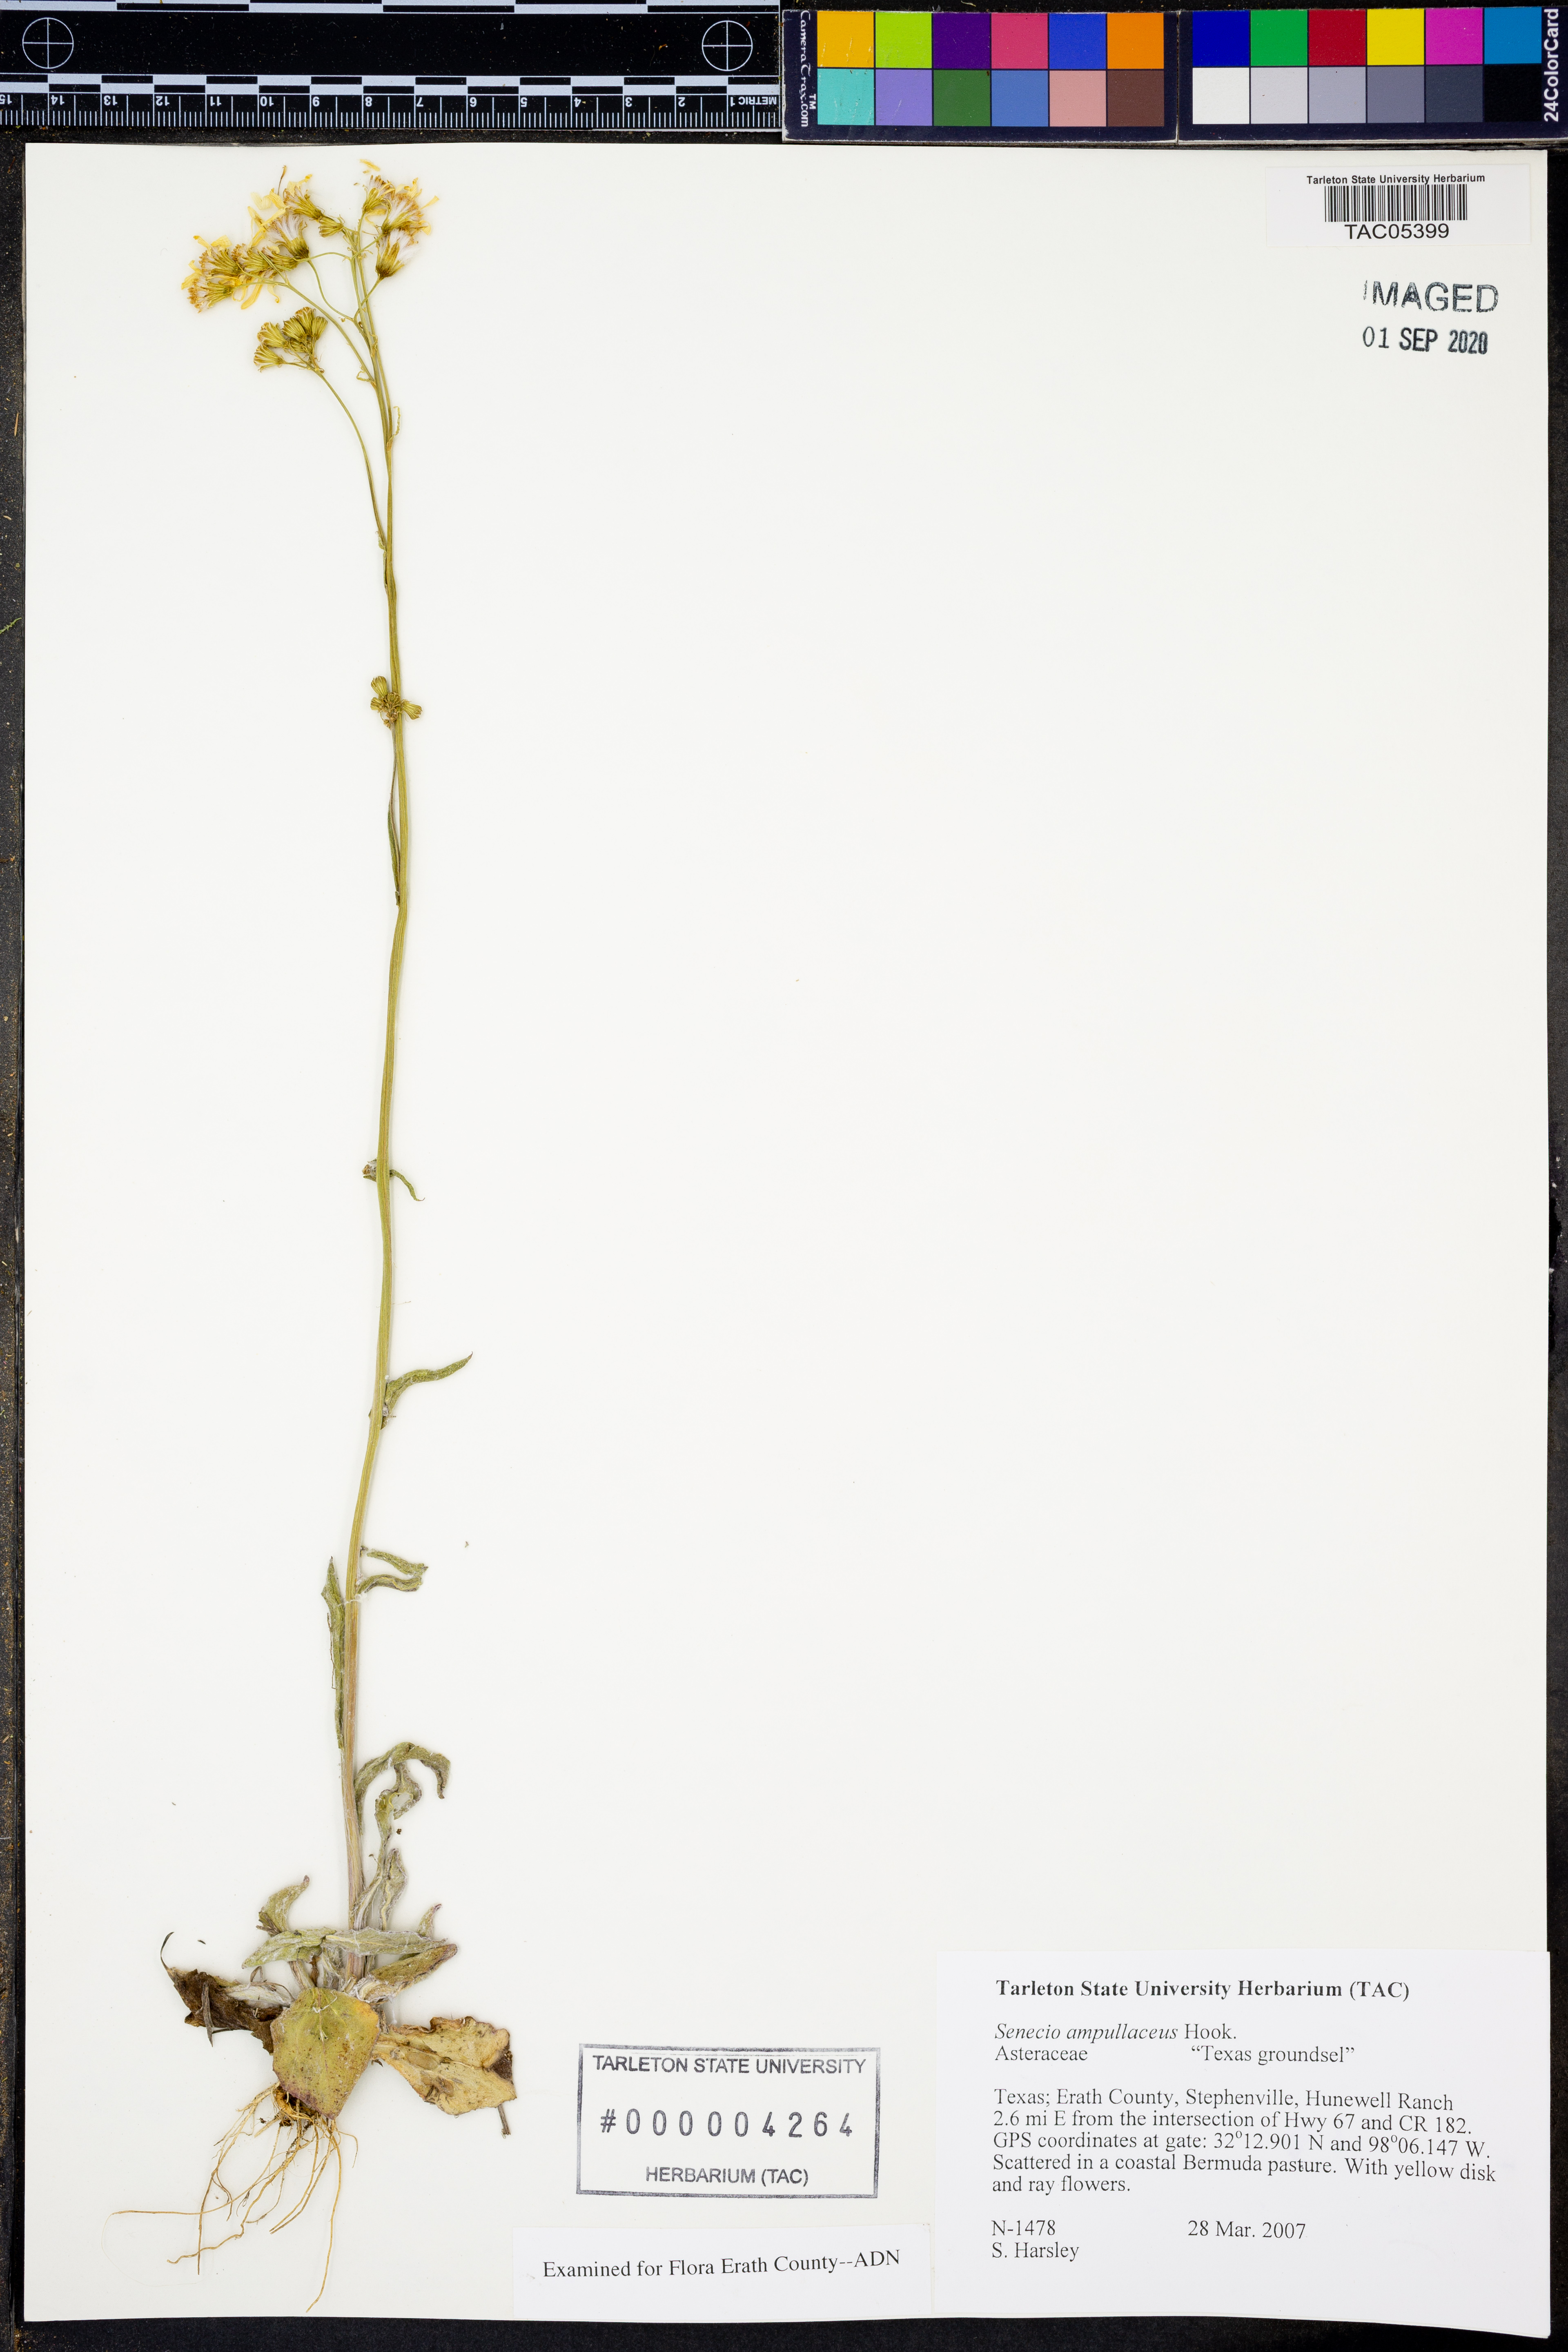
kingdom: Plantae
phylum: Tracheophyta
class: Magnoliopsida
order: Asterales
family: Asteraceae
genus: Senecio
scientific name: Senecio ampullaceus
